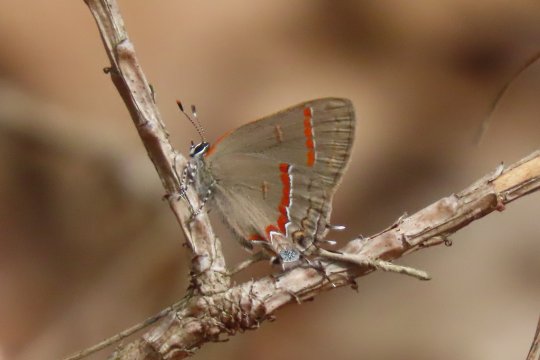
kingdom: Animalia
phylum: Arthropoda
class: Insecta
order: Lepidoptera
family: Lycaenidae
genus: Calycopis
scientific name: Calycopis cecrops
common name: Red-banded Hairstreak
